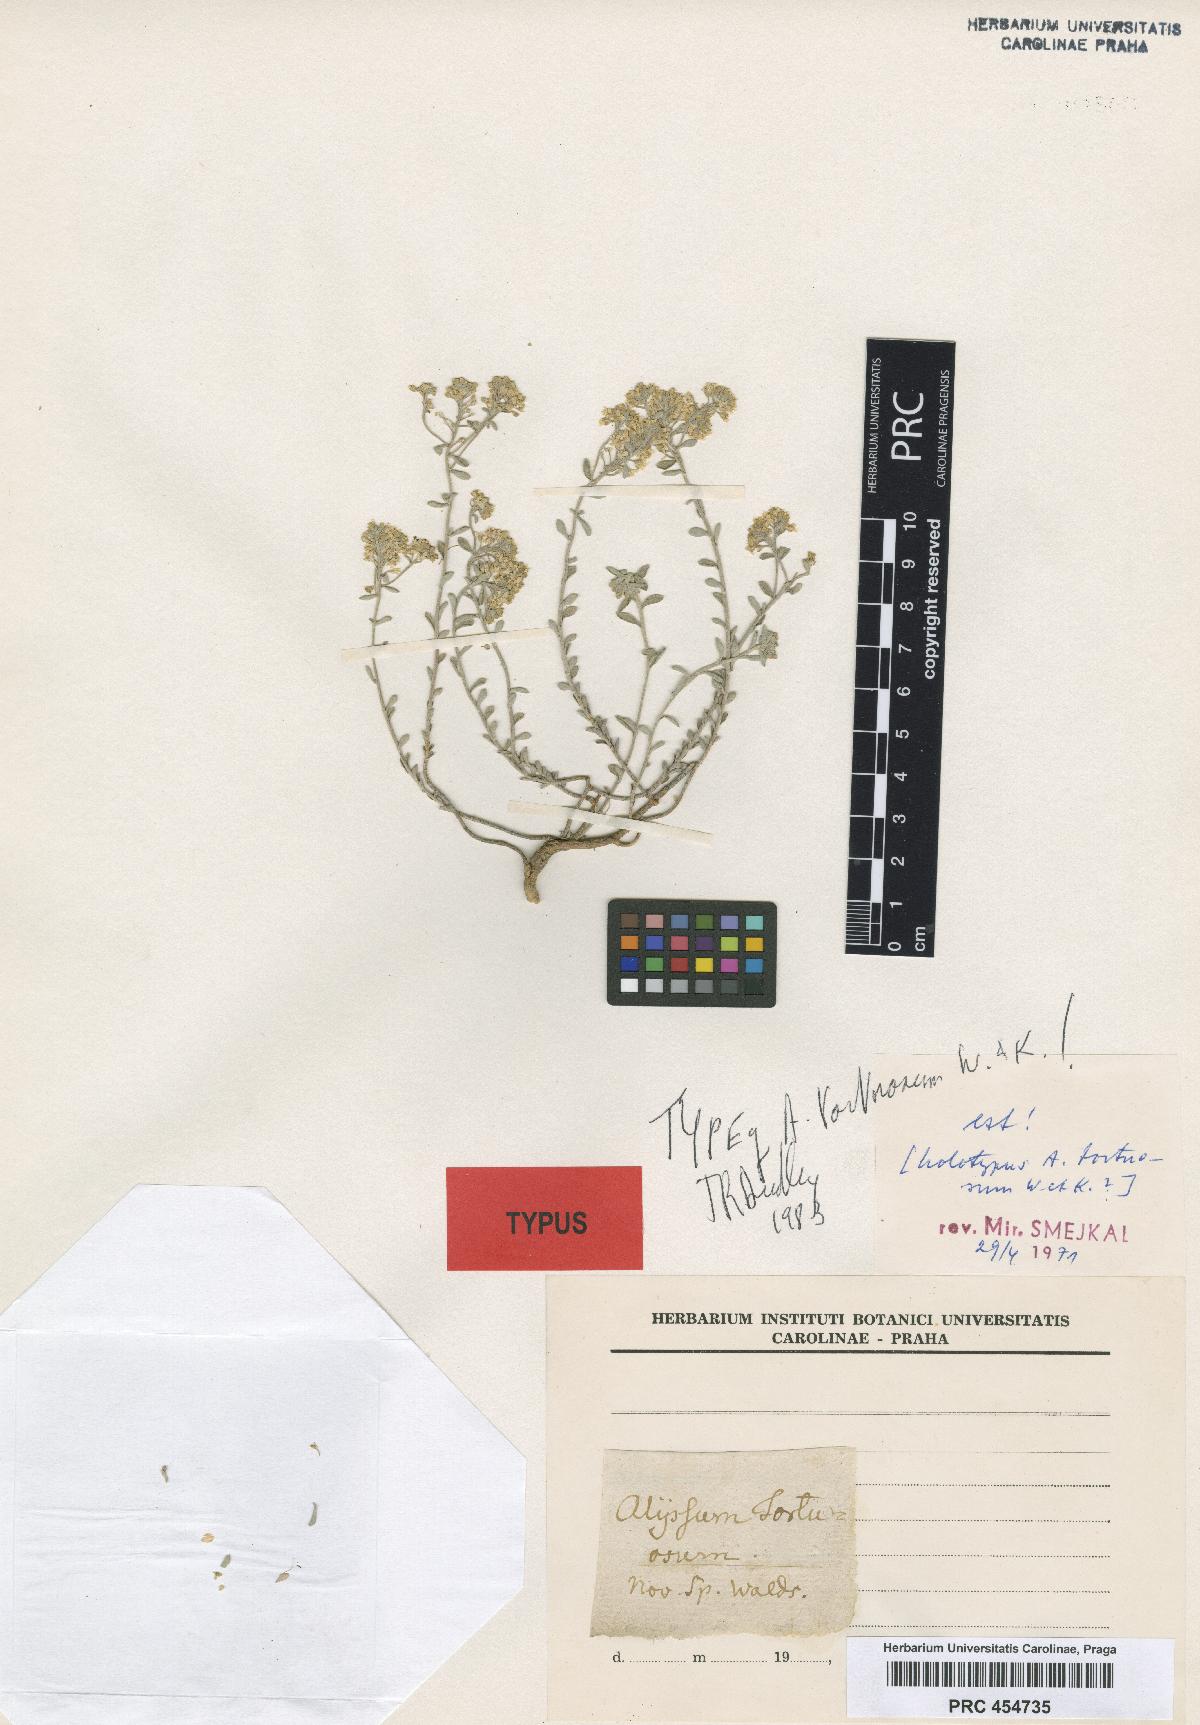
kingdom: Plantae
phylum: Tracheophyta
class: Magnoliopsida
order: Brassicales
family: Brassicaceae
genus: Odontarrhena
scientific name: Odontarrhena tortuosa
